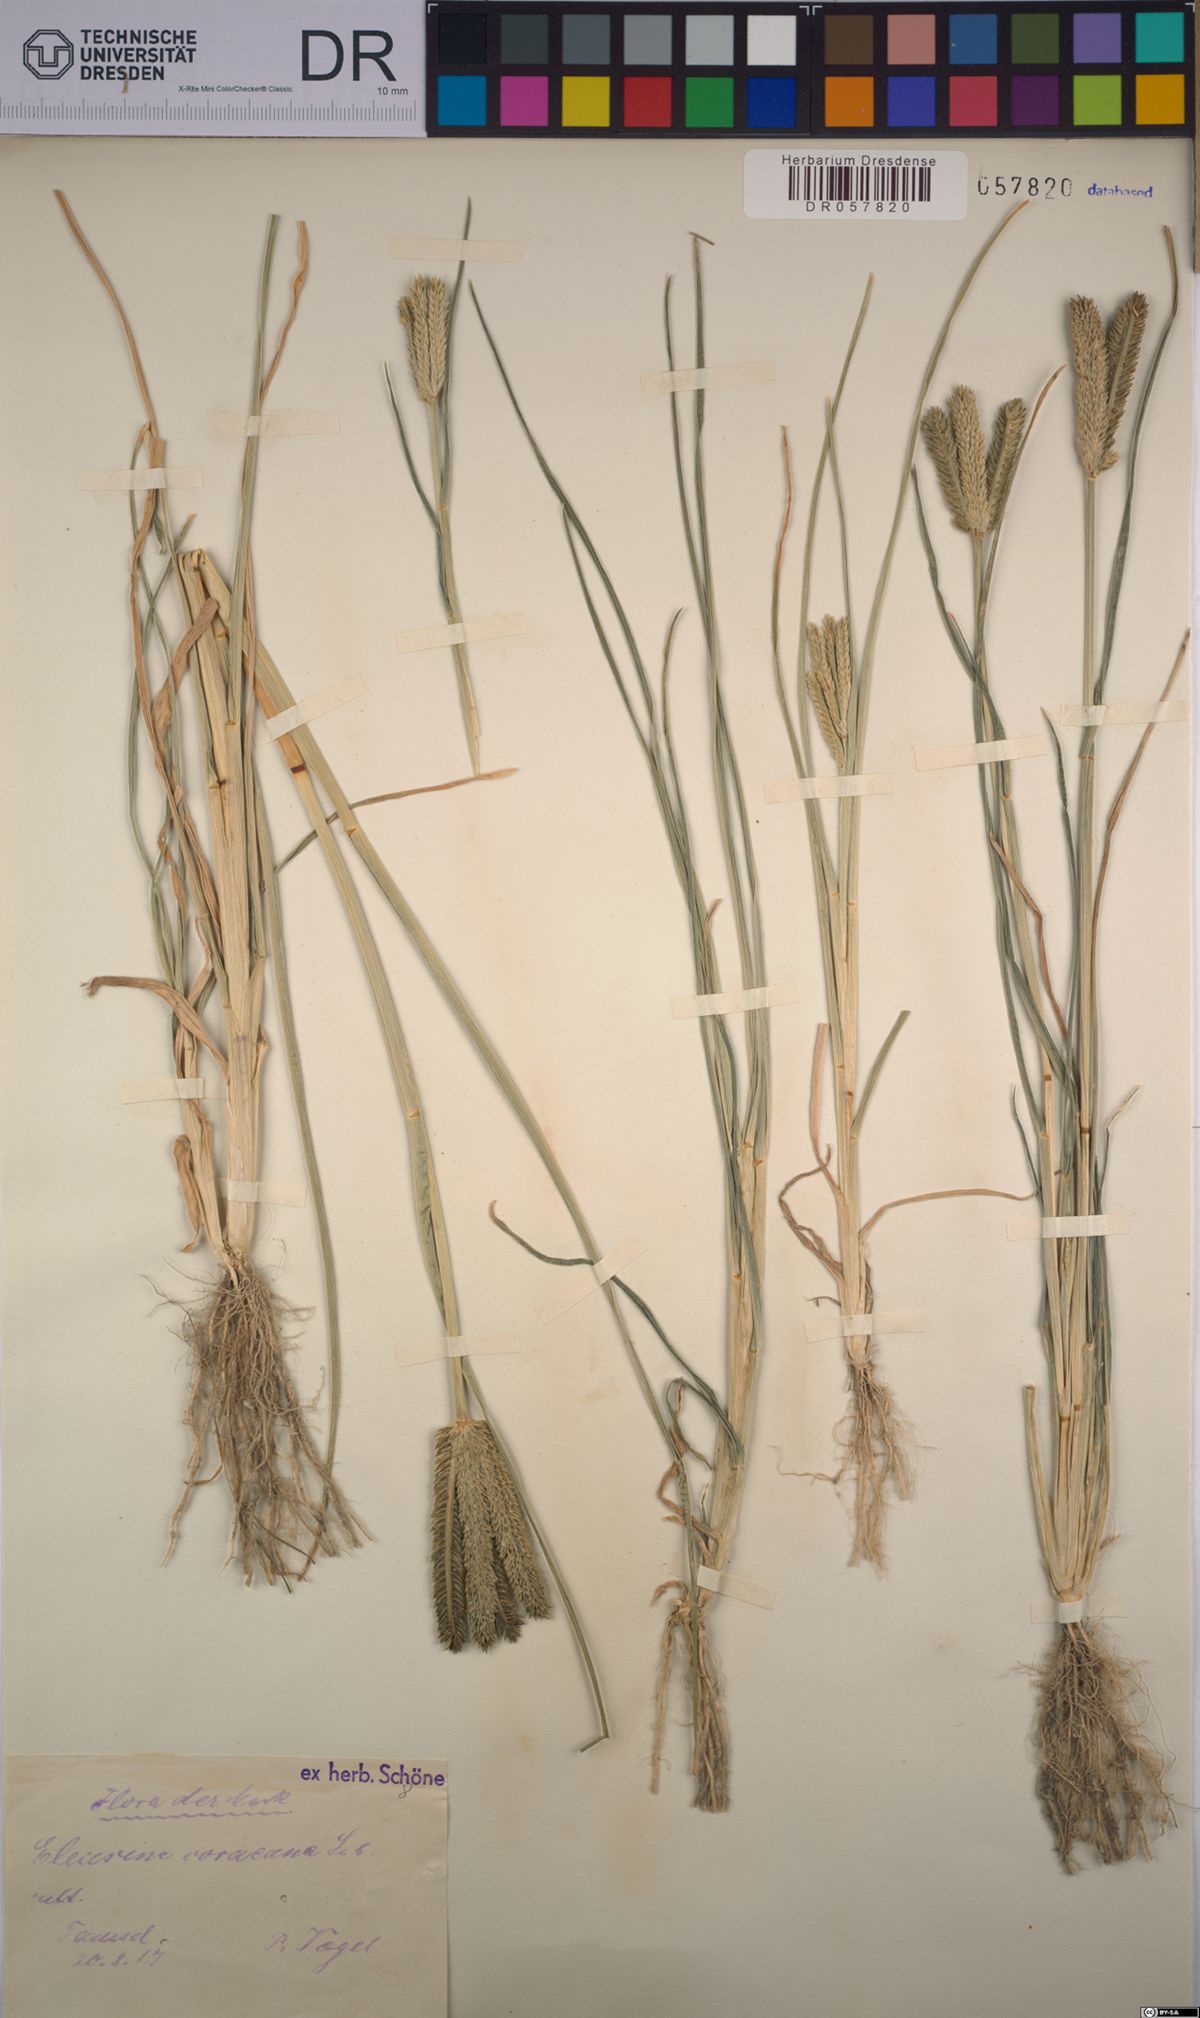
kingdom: Plantae
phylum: Tracheophyta
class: Liliopsida
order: Poales
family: Poaceae
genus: Eleusine
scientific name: Eleusine coracana
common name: Finger millet
